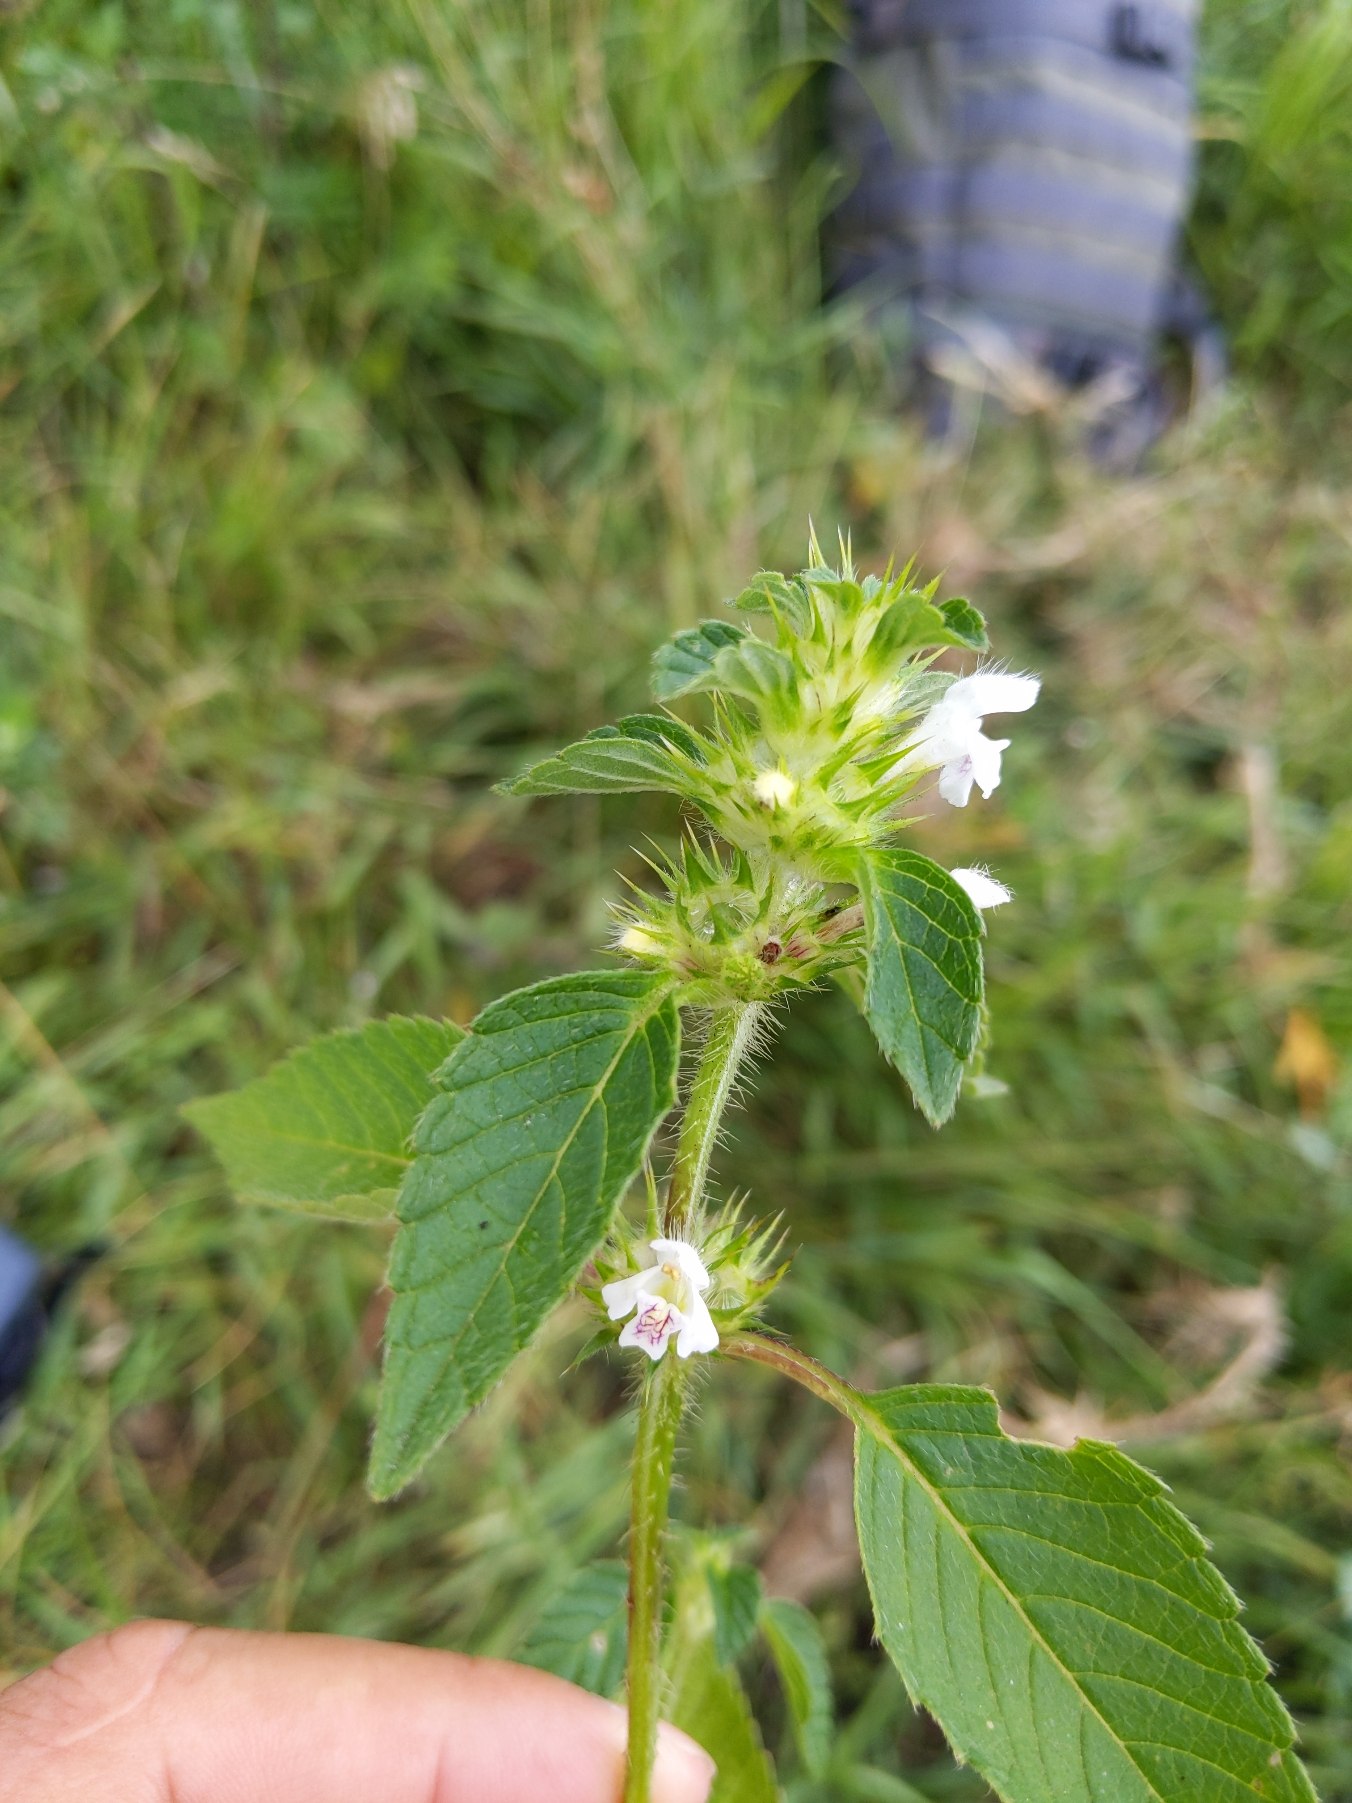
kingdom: Plantae
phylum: Tracheophyta
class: Magnoliopsida
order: Lamiales
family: Lamiaceae
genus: Galeopsis
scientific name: Galeopsis tetrahit
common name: Almindelig hanekro
